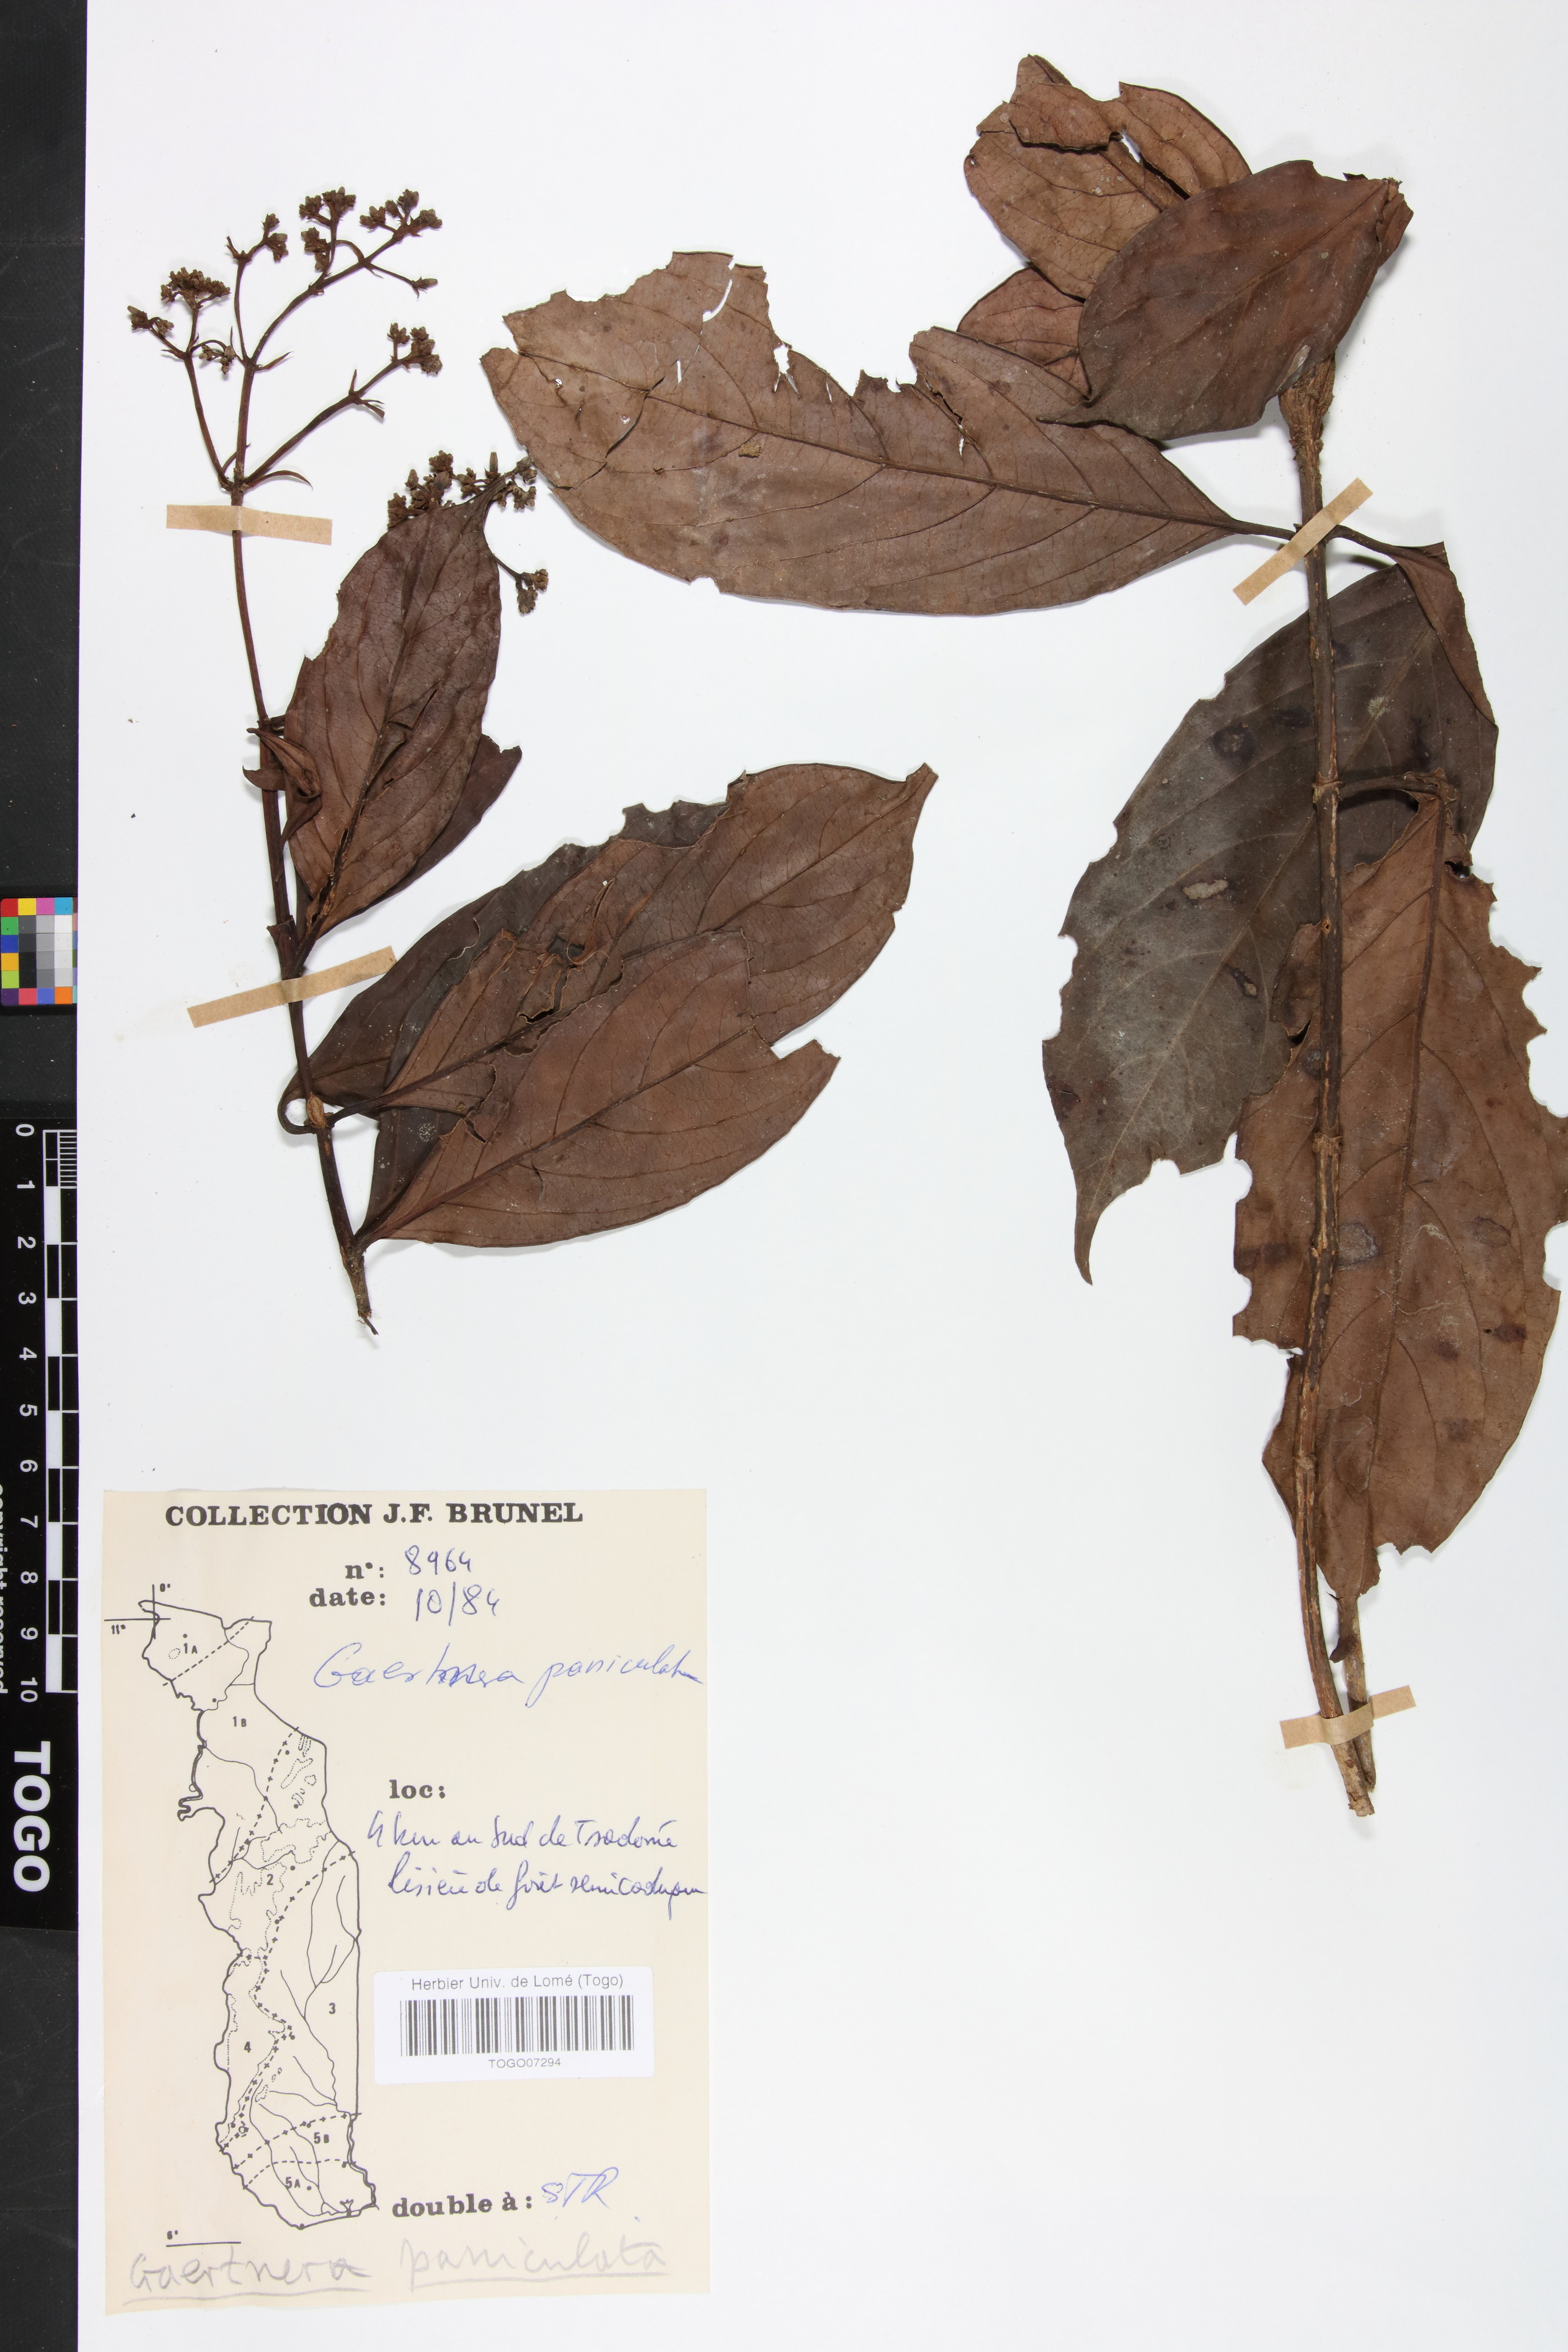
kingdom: Plantae
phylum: Tracheophyta
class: Magnoliopsida
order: Gentianales
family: Rubiaceae
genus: Gaertnera
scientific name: Gaertnera paniculata
